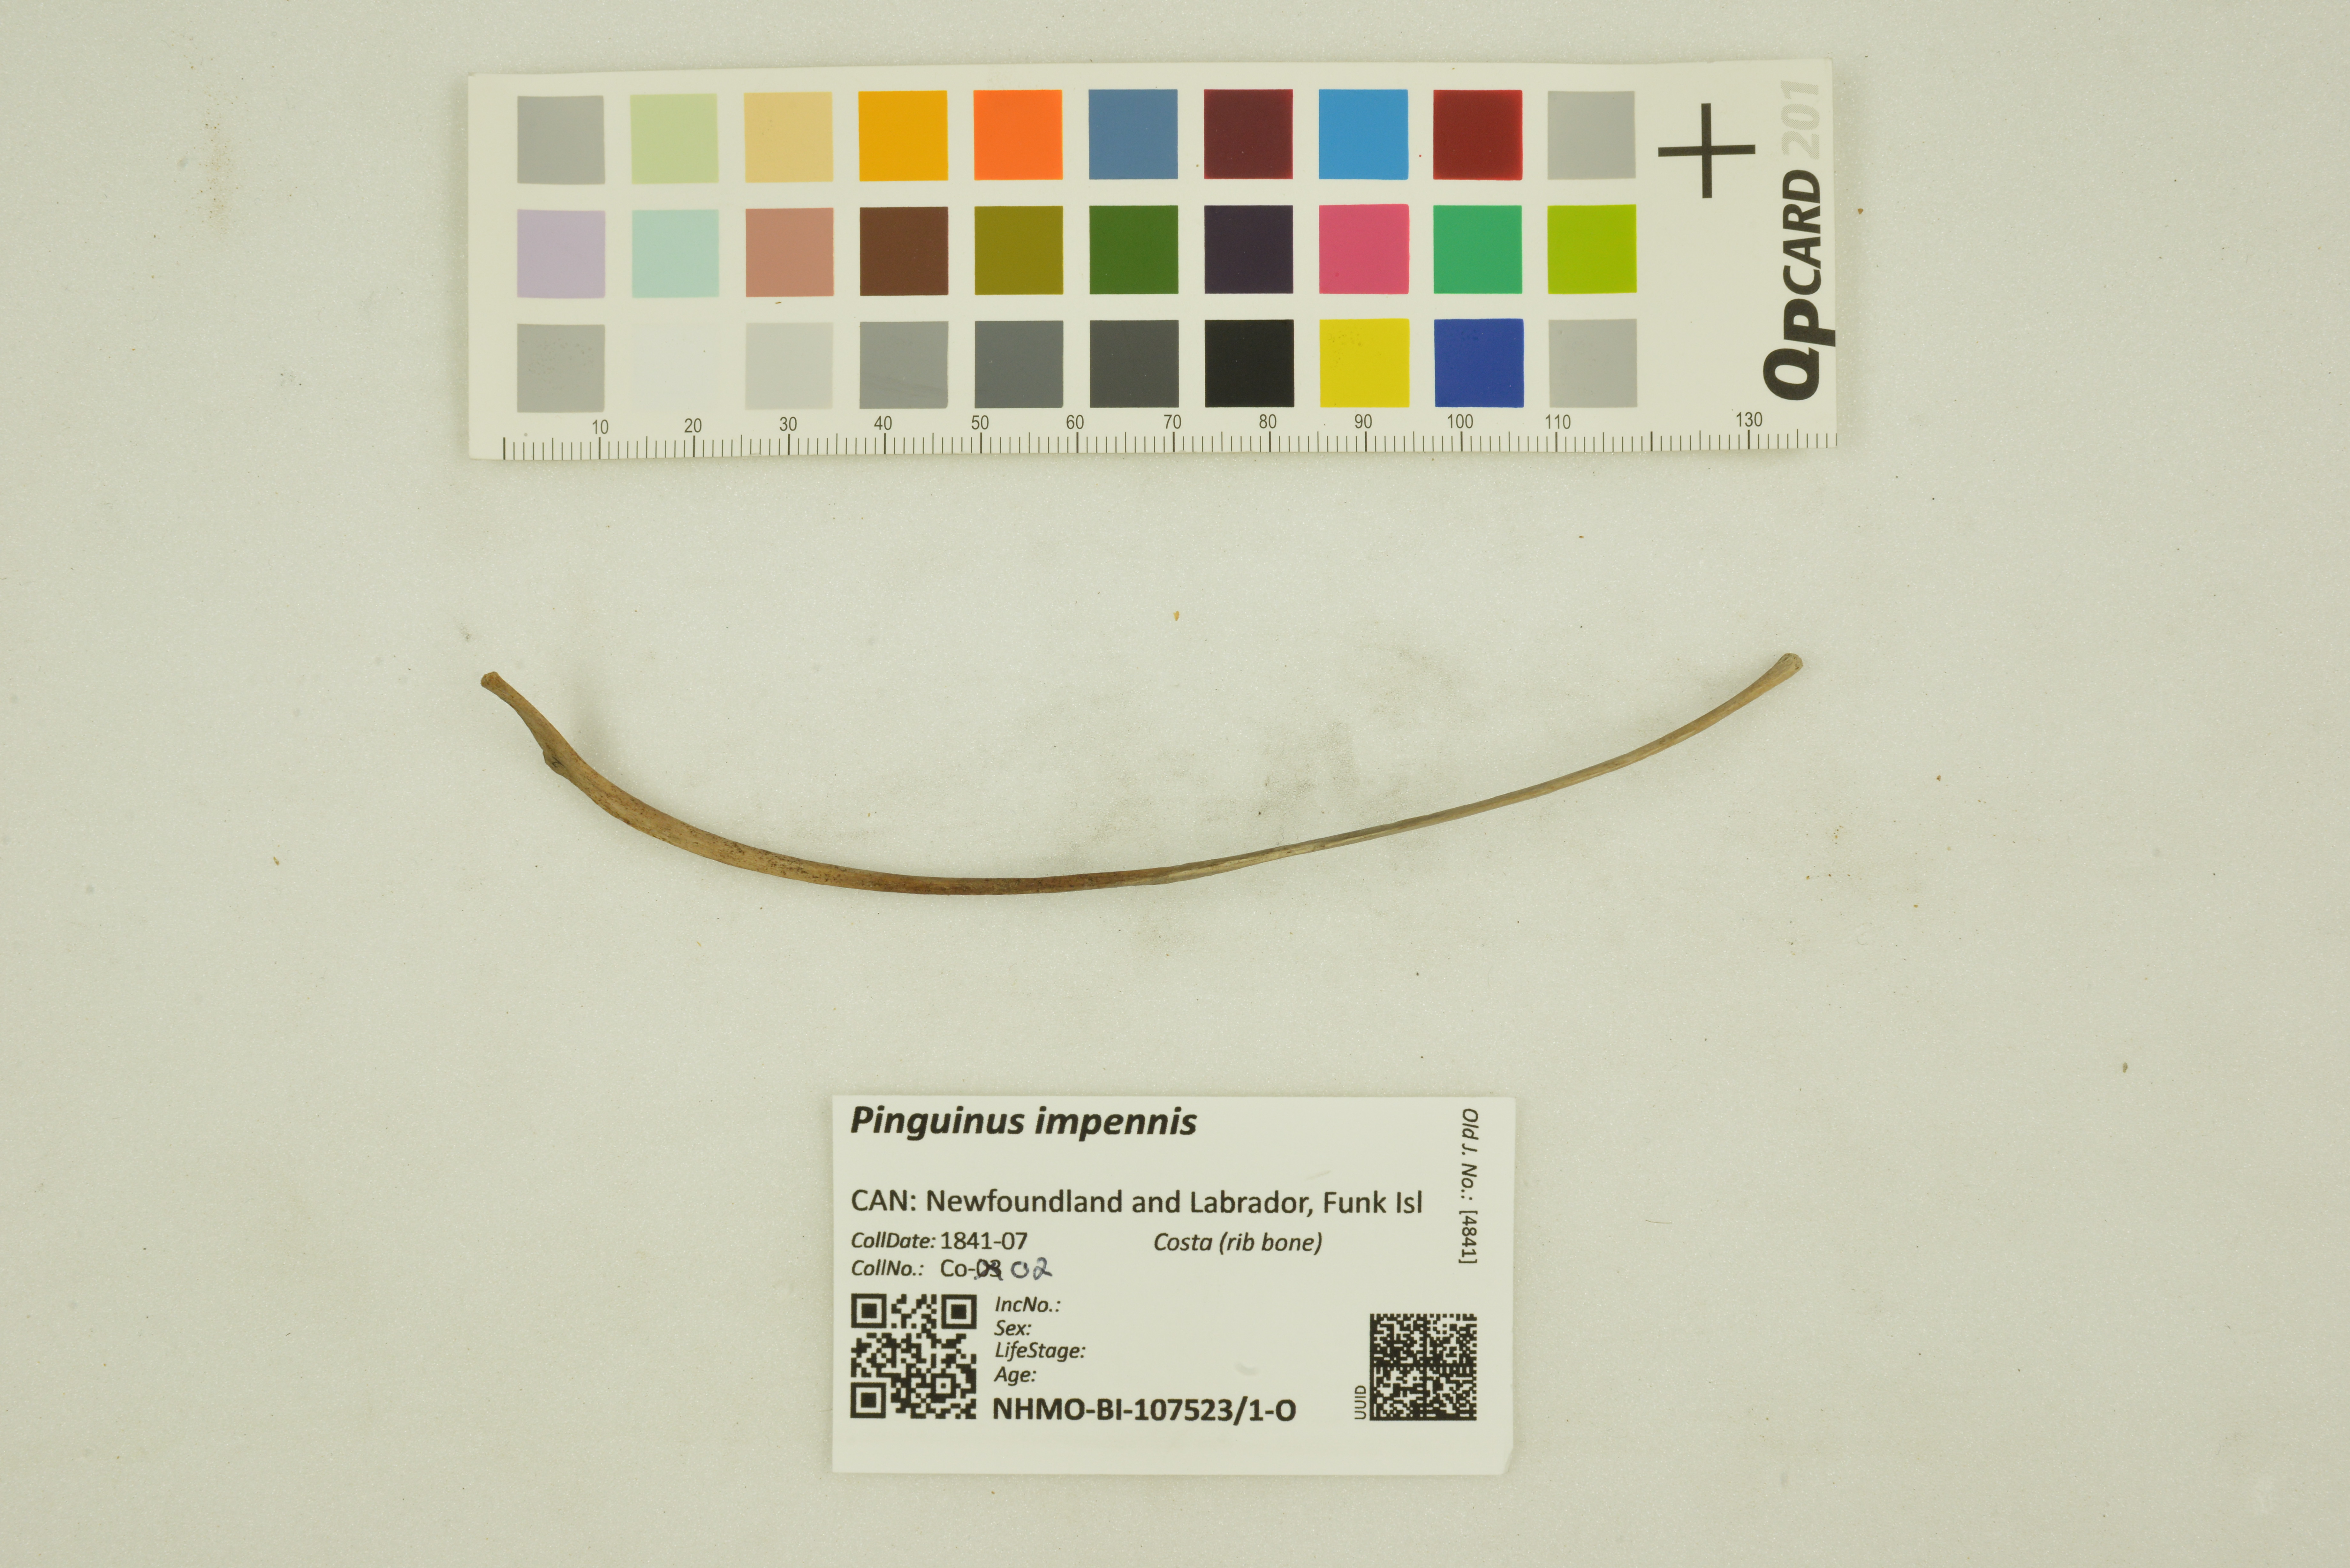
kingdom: Animalia
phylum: Chordata
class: Aves
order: Charadriiformes
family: Alcidae
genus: Pinguinus
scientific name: Pinguinus impennis
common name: Great auk
